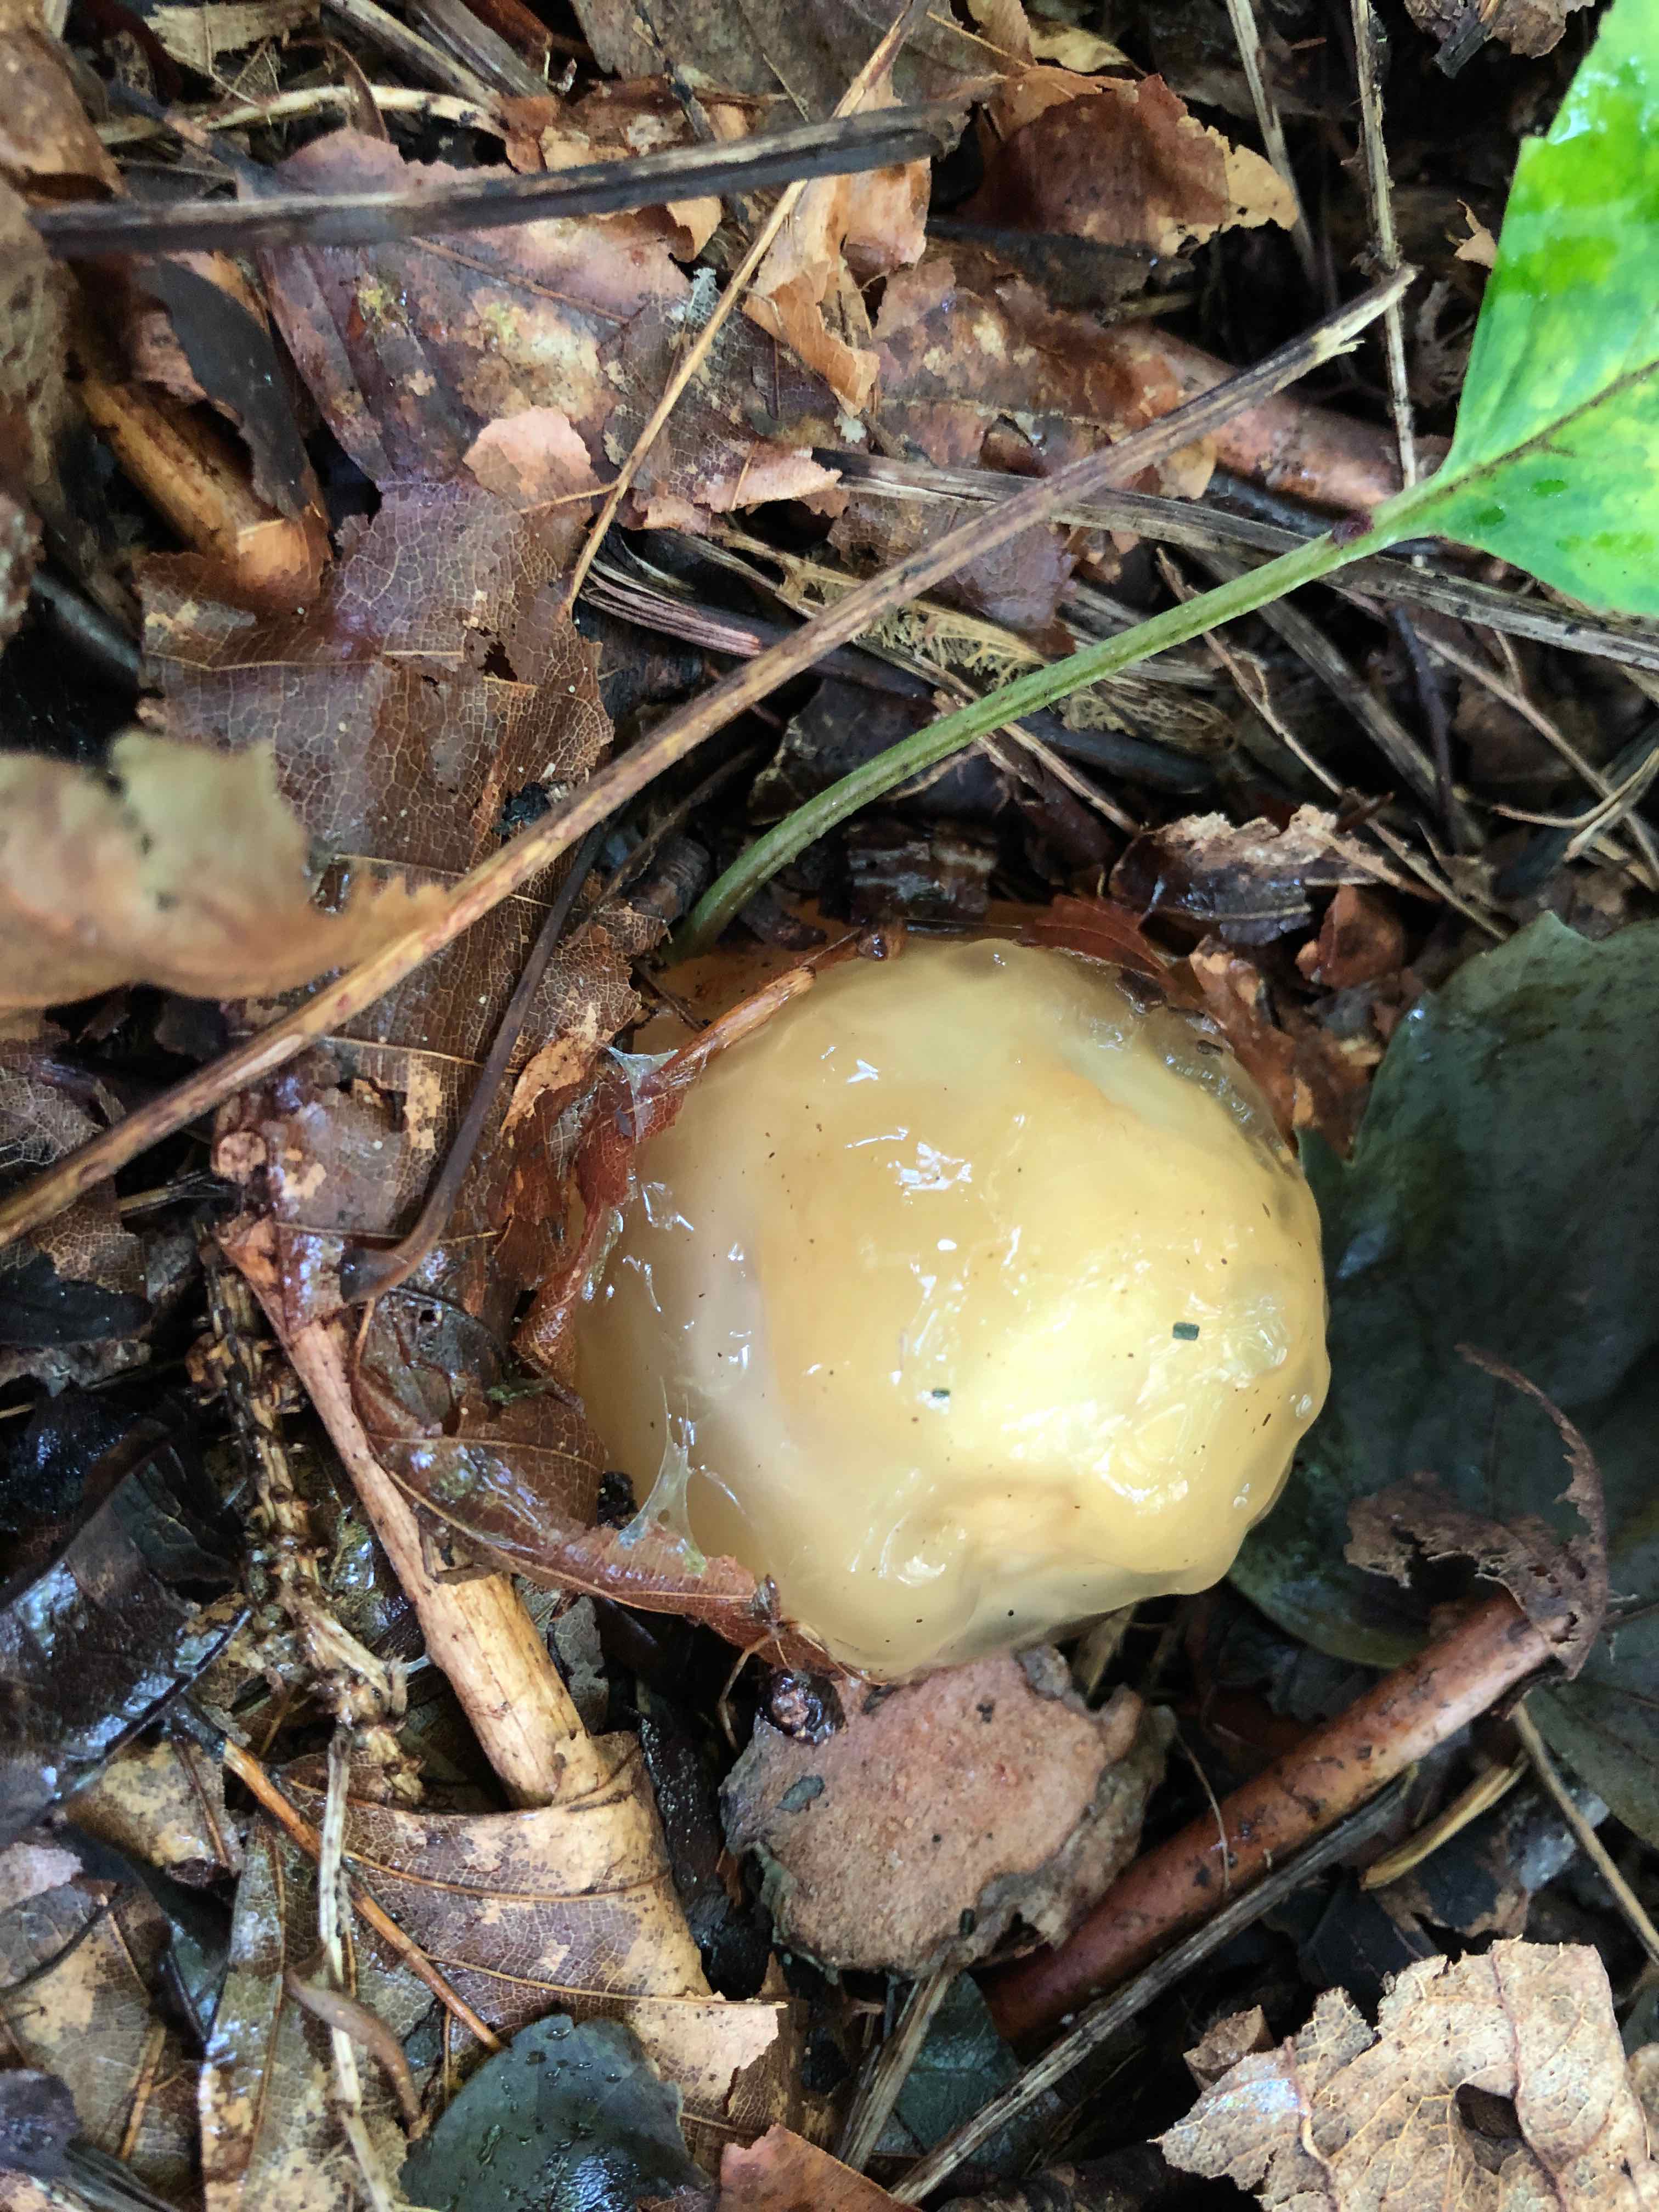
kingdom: Fungi
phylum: Basidiomycota
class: Agaricomycetes
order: Phallales
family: Phallaceae
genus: Phallus
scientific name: Phallus impudicus
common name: almindelig stinksvamp
